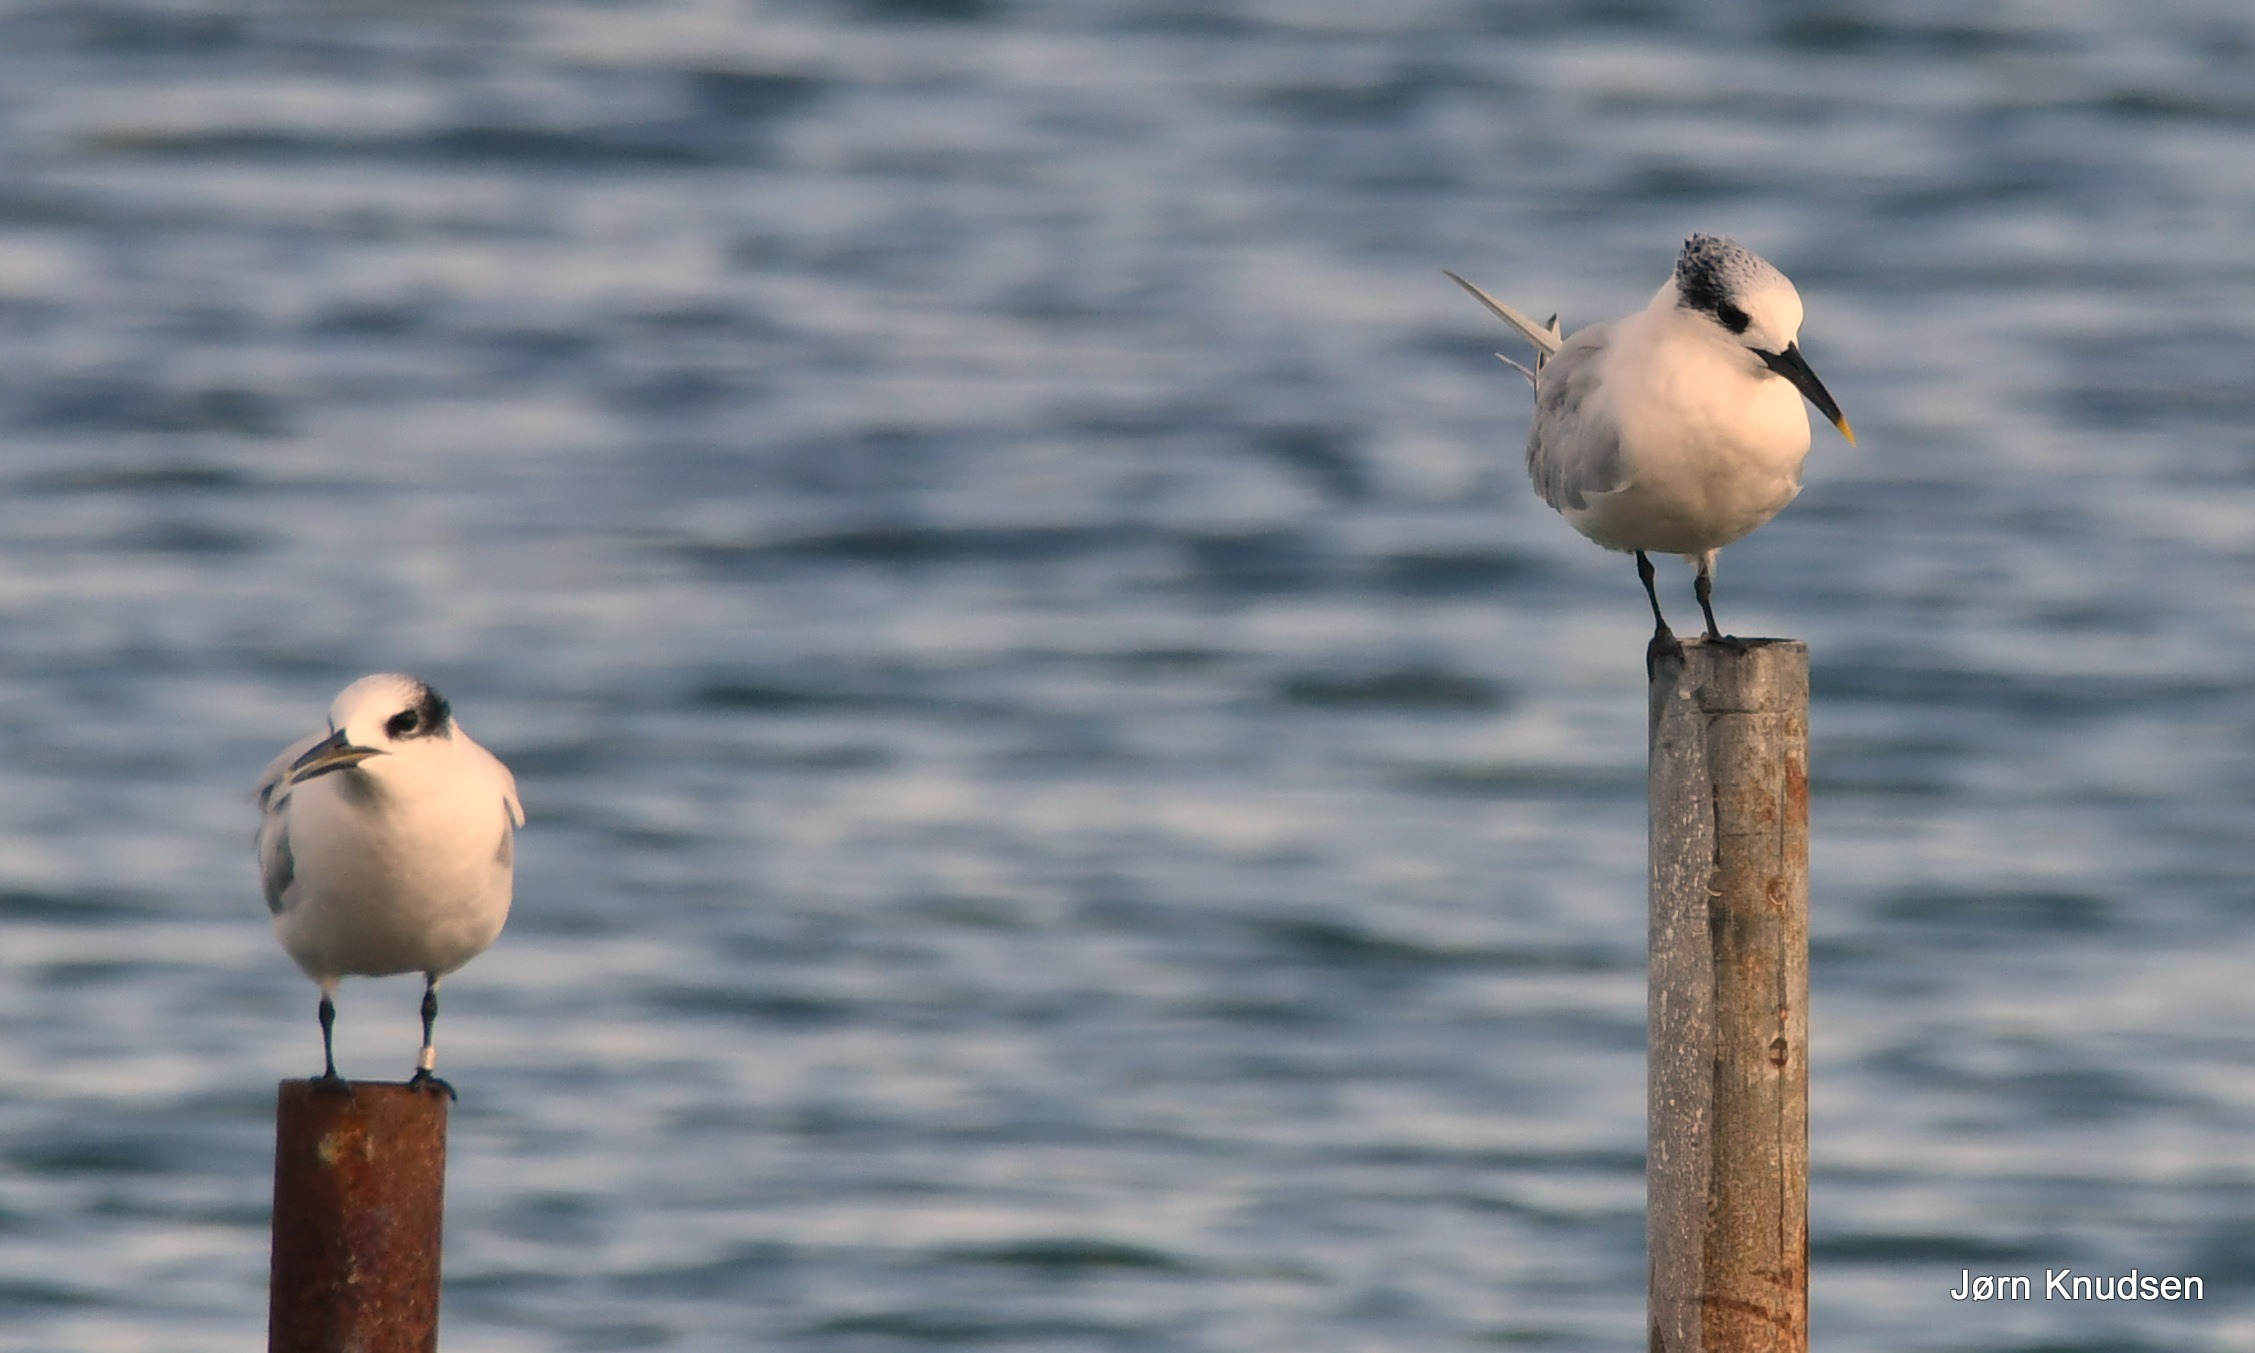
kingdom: Animalia
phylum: Chordata
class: Aves
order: Charadriiformes
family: Laridae
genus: Thalasseus
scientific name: Thalasseus sandvicensis
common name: Splitterne
